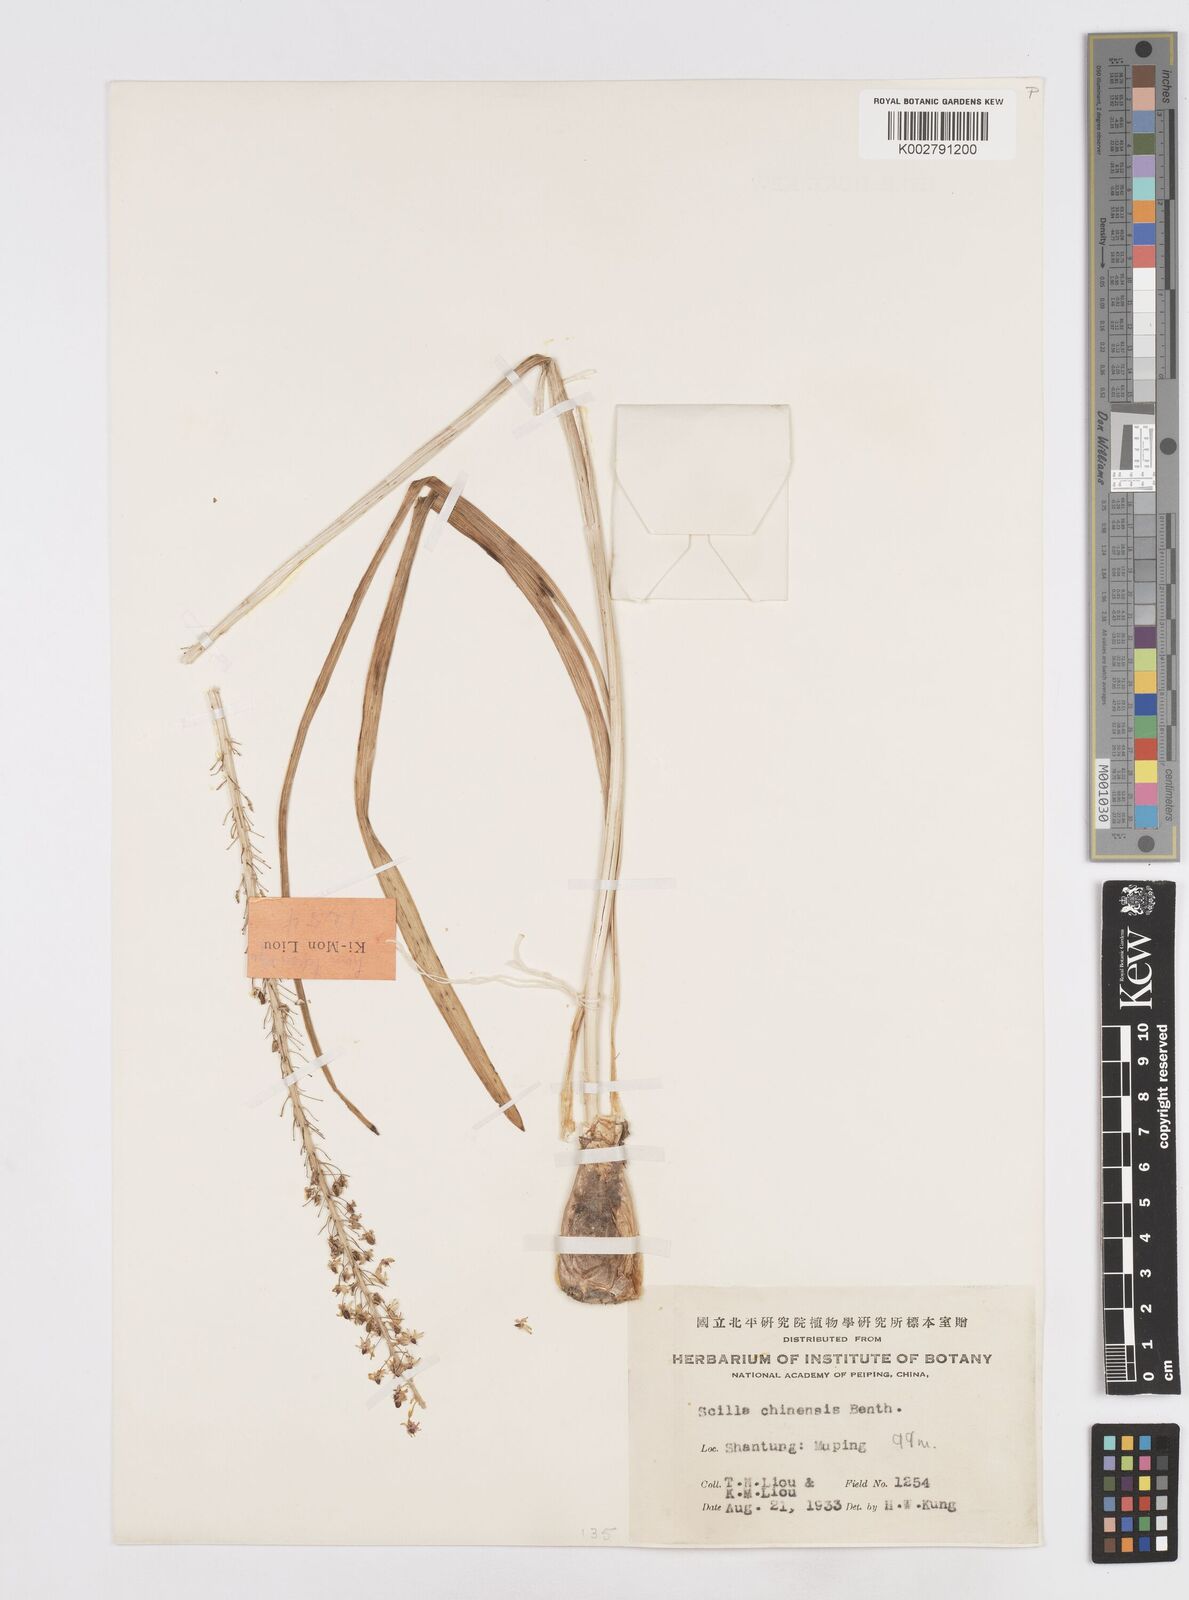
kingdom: Plantae
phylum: Tracheophyta
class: Liliopsida
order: Asparagales
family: Asparagaceae
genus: Barnardia
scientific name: Barnardia japonica
